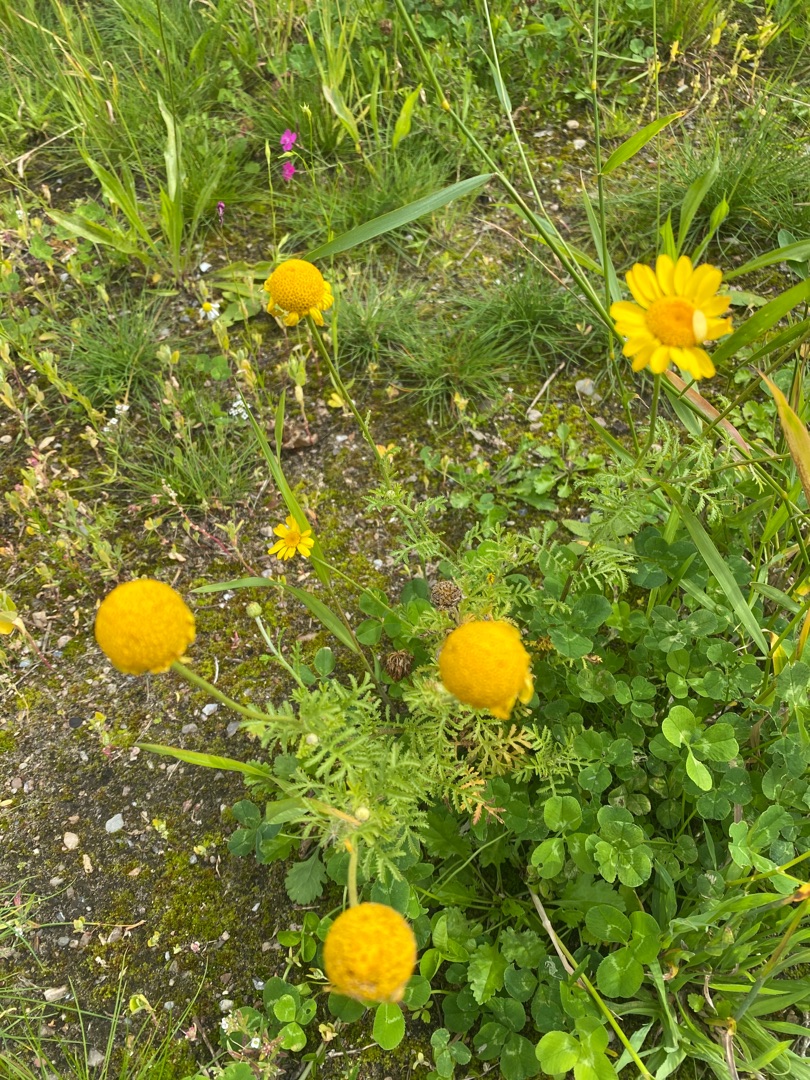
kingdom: Plantae
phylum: Tracheophyta
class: Magnoliopsida
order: Asterales
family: Asteraceae
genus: Cota
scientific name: Cota tinctoria
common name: Farve-gåseurt
